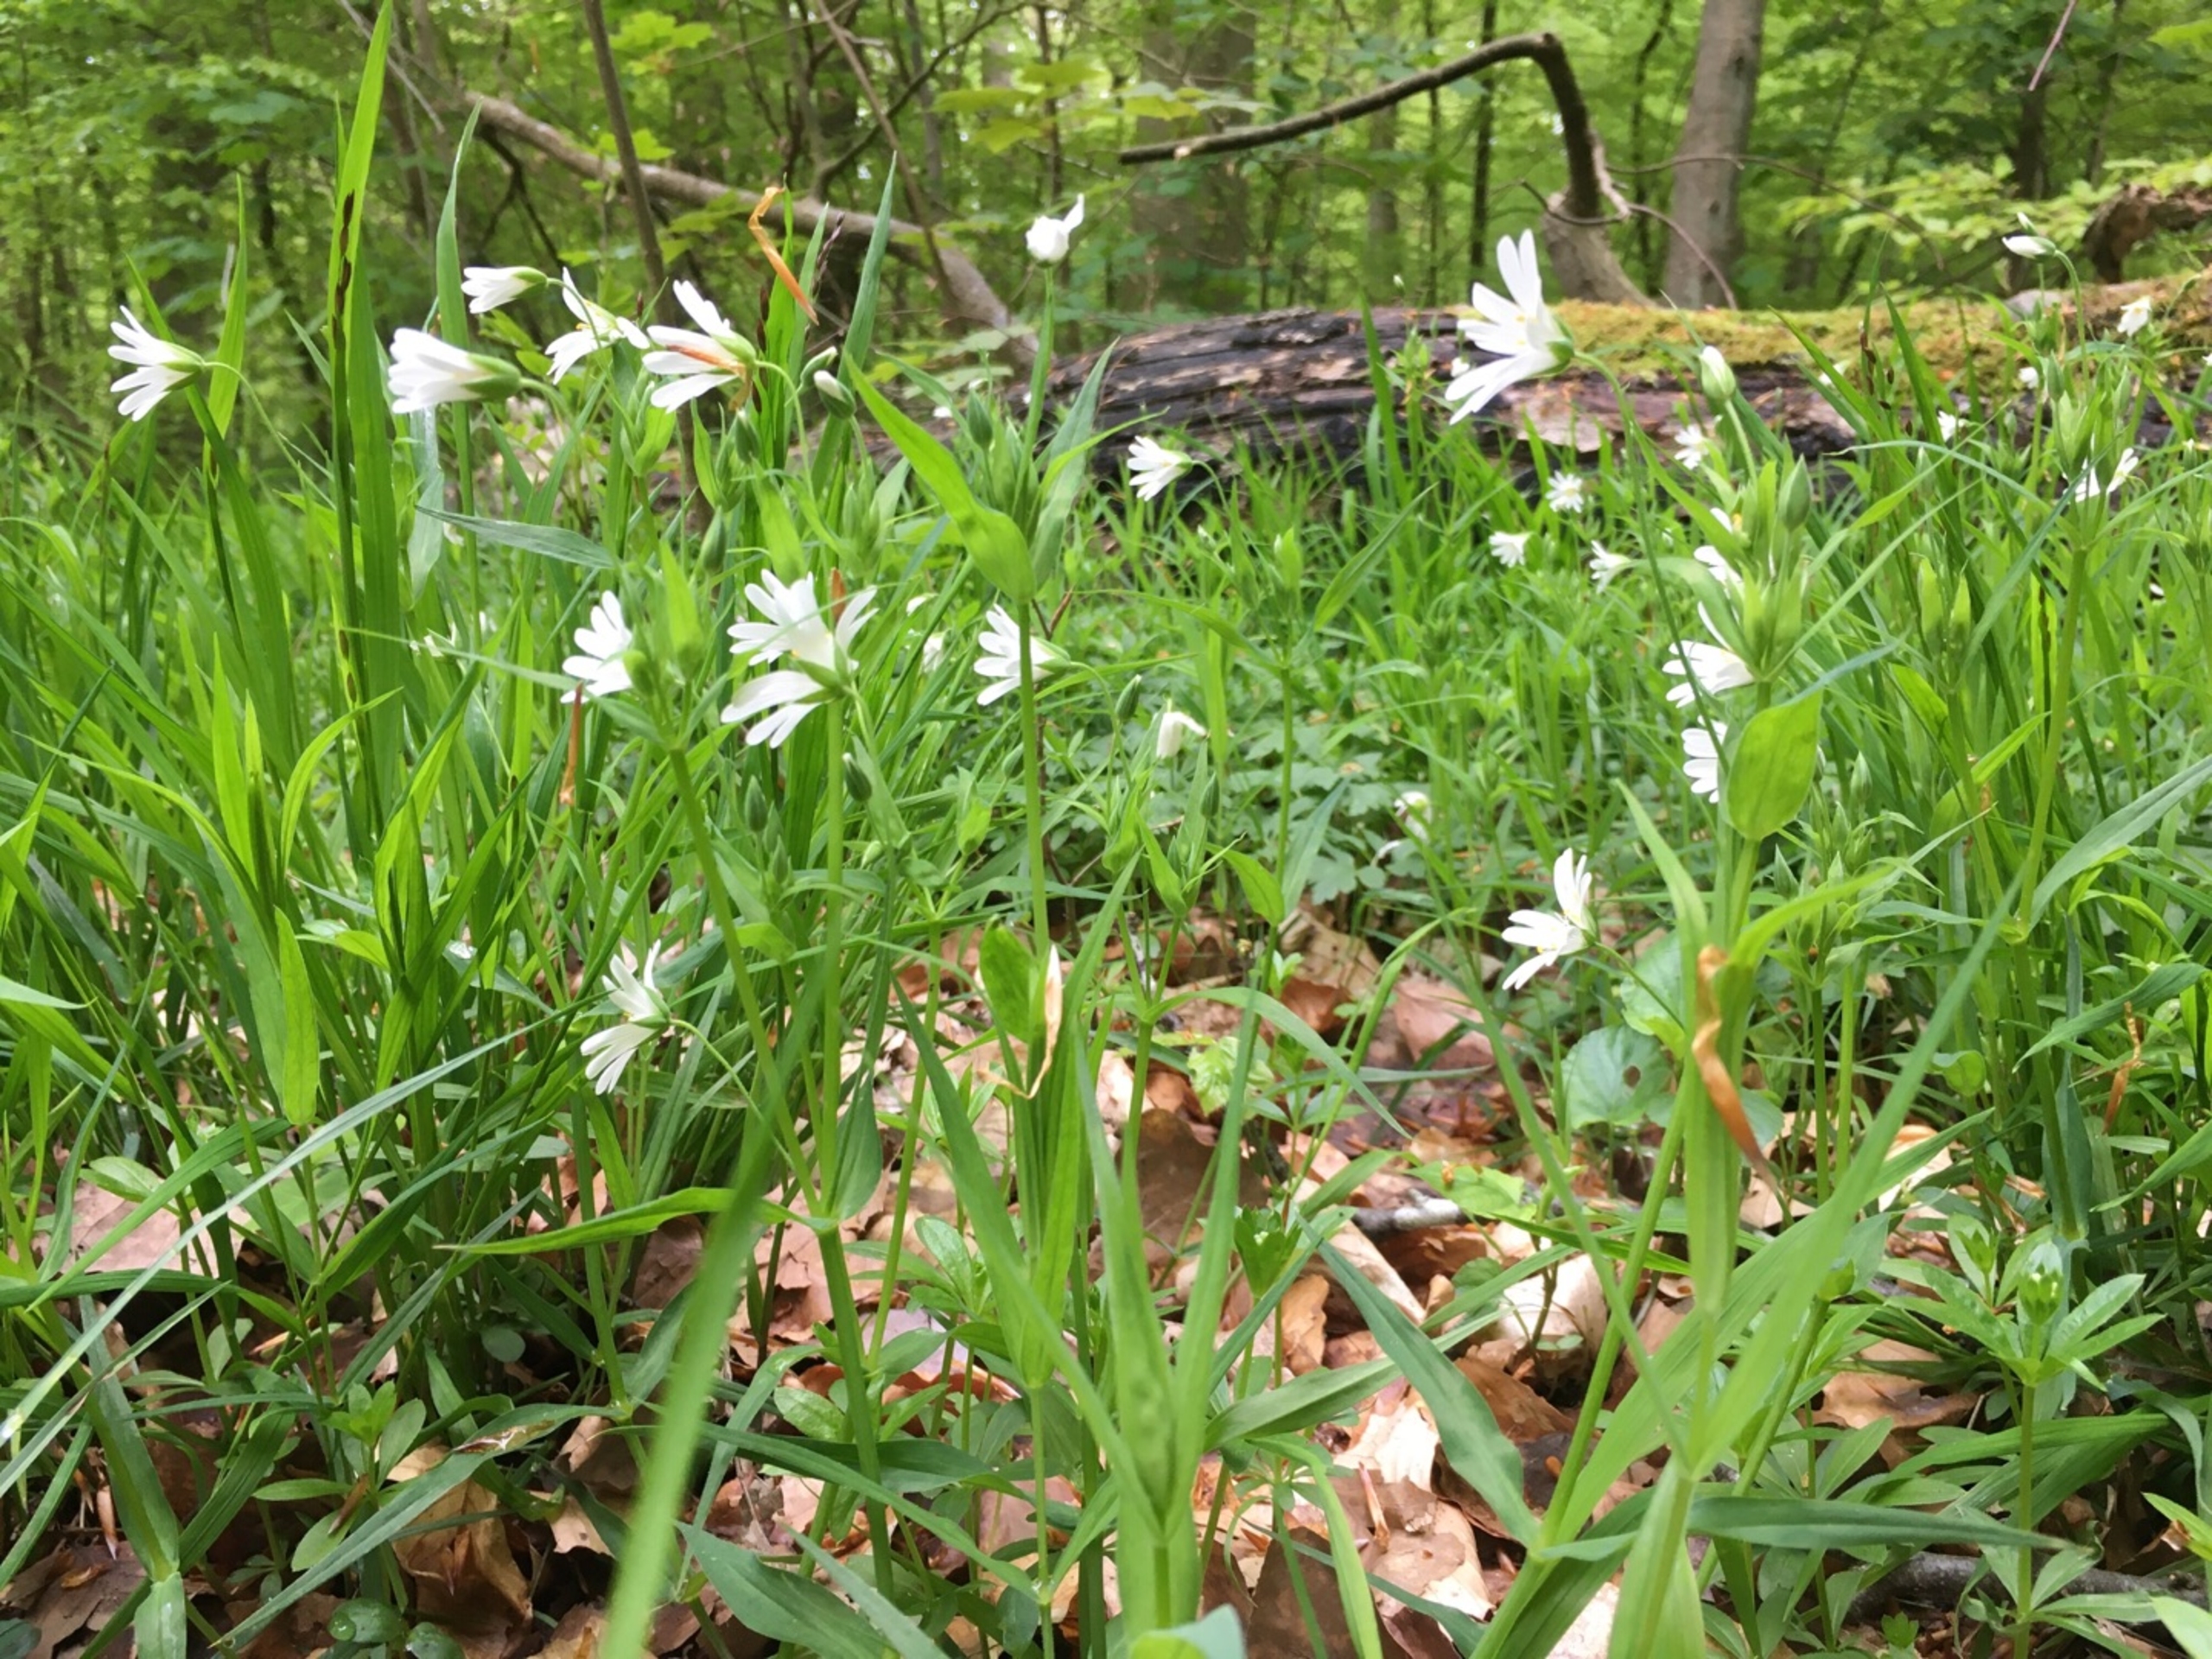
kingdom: Plantae
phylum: Tracheophyta
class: Magnoliopsida
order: Caryophyllales
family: Caryophyllaceae
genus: Rabelera
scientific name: Rabelera holostea
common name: Stor fladstjerne
